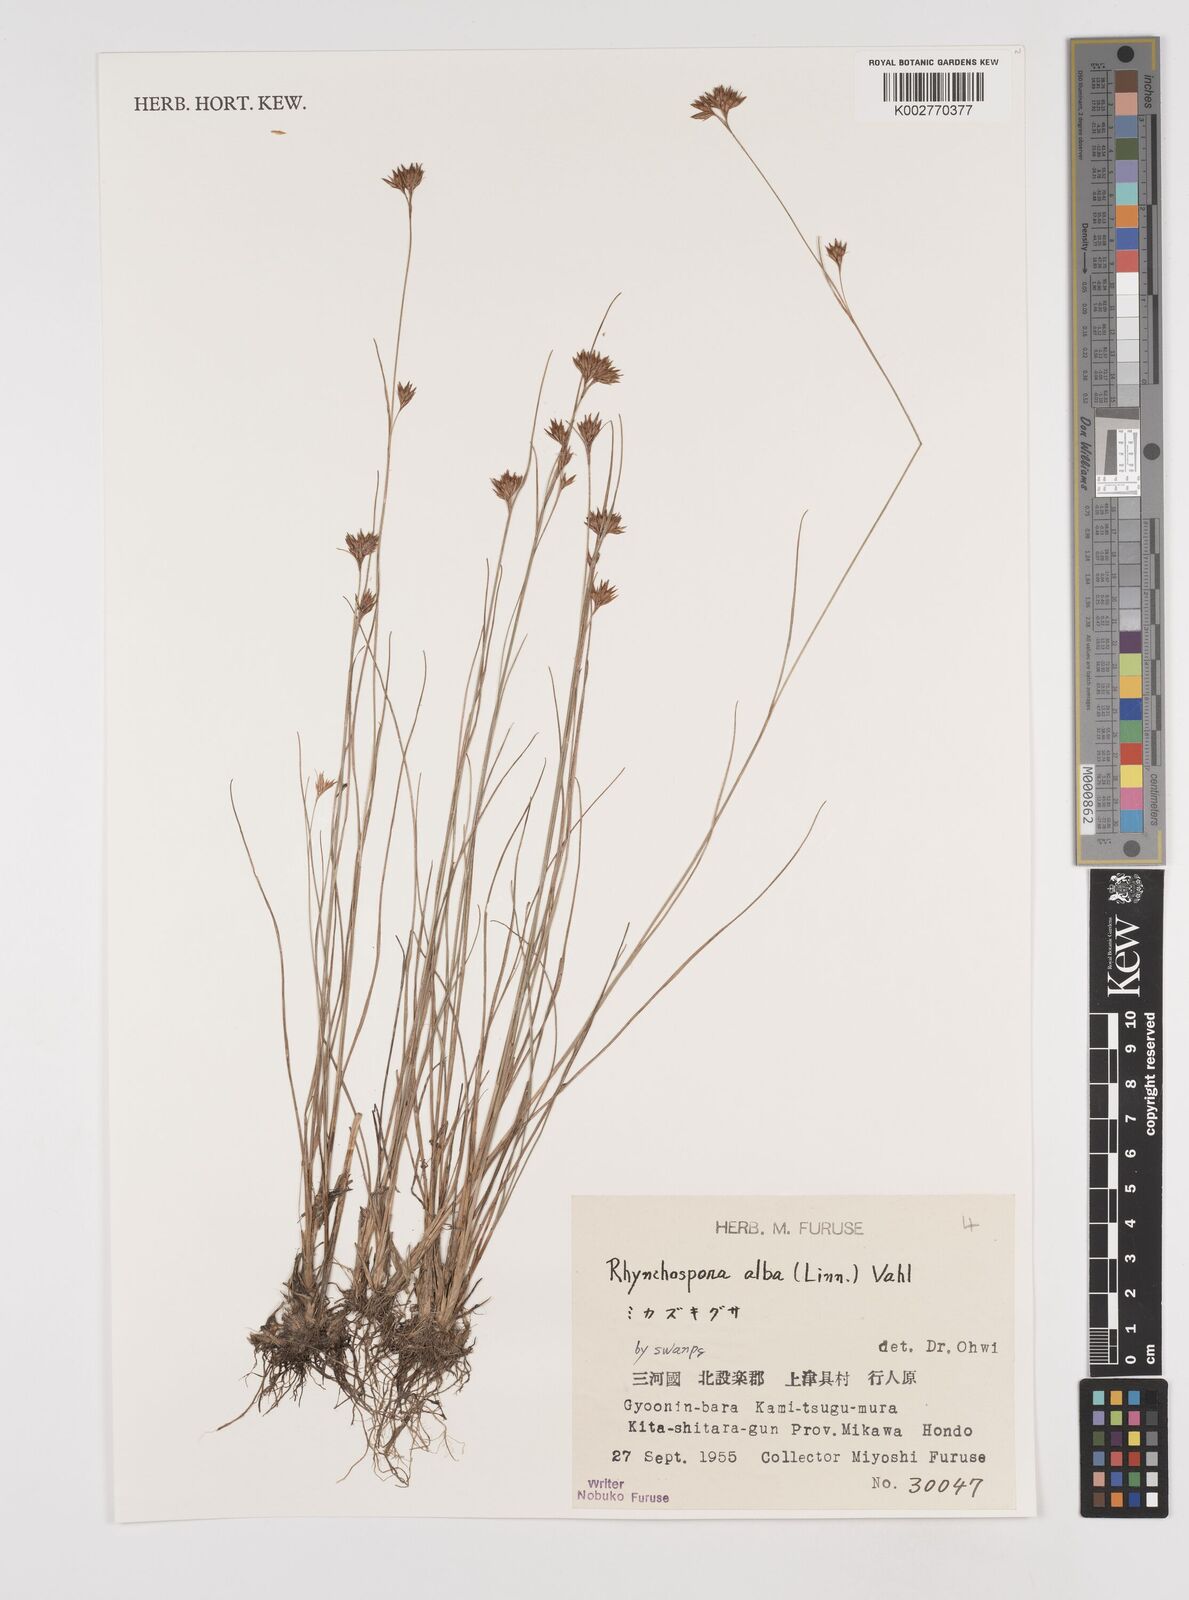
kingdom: Plantae
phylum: Tracheophyta
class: Liliopsida
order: Poales
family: Cyperaceae
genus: Rhynchospora
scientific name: Rhynchospora alba
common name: White beak-sedge
